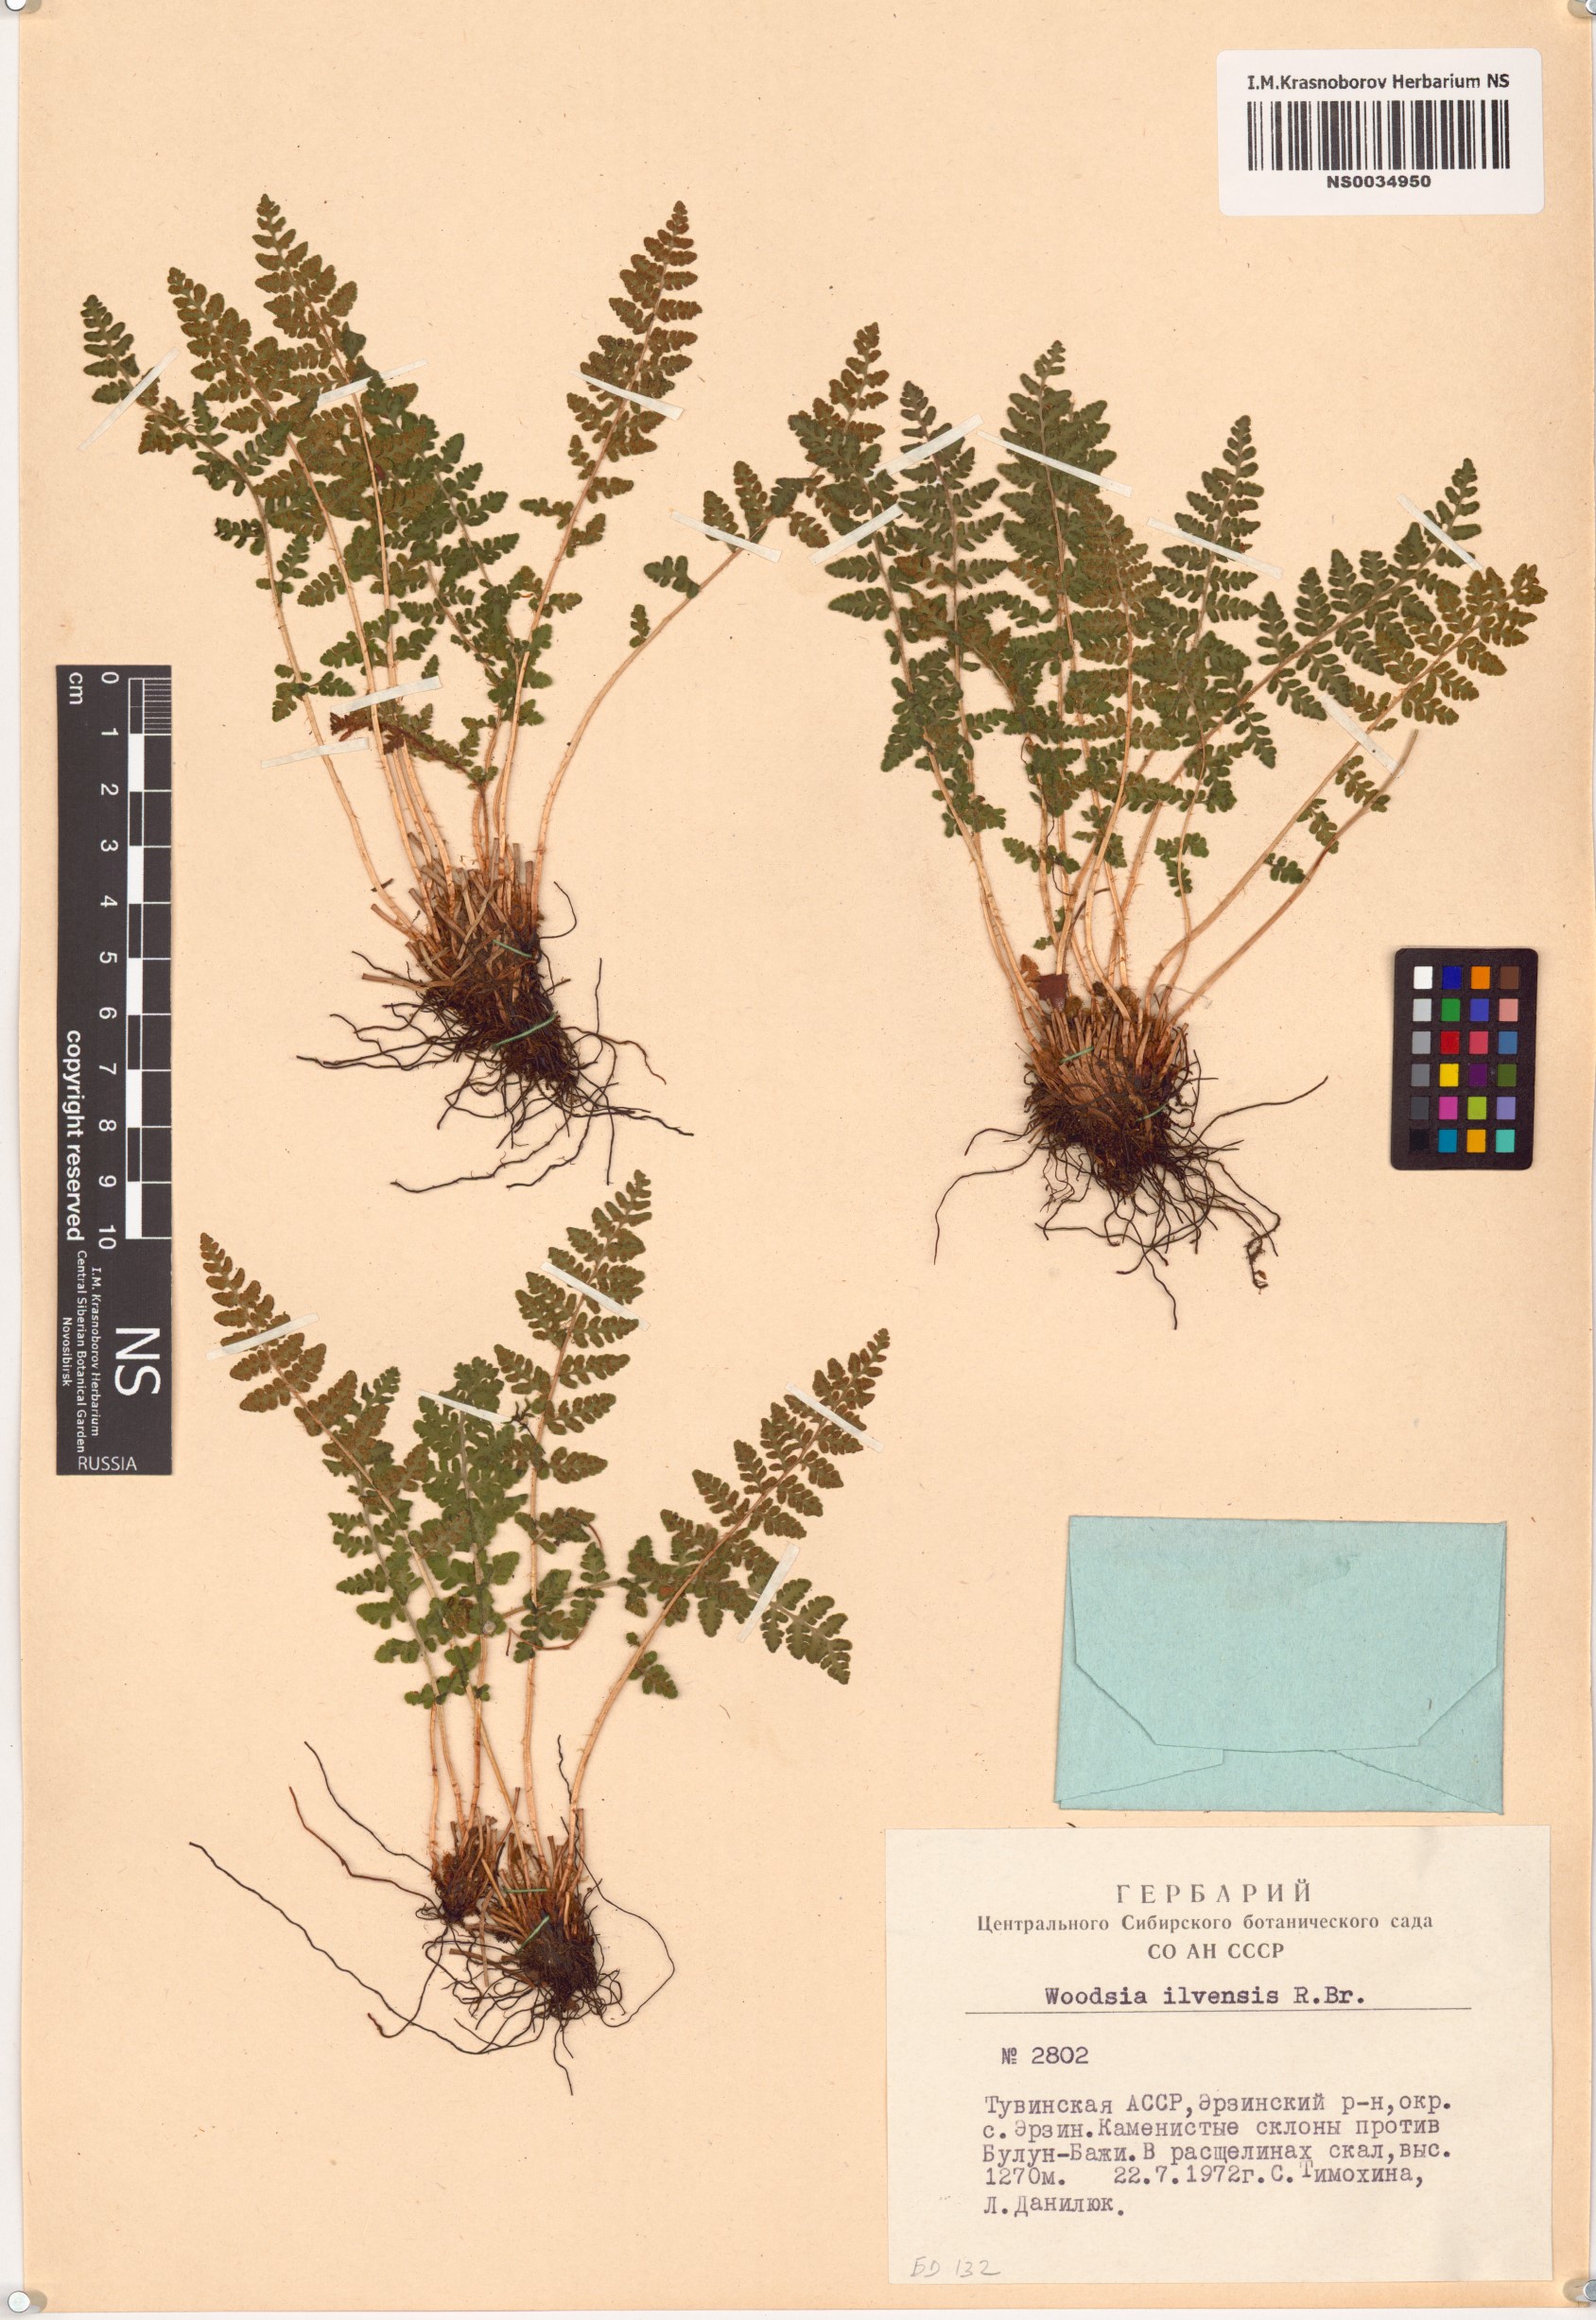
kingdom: Plantae
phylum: Tracheophyta
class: Polypodiopsida
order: Polypodiales
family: Woodsiaceae
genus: Woodsia
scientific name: Woodsia ilvensis
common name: Fragrant woodsia
